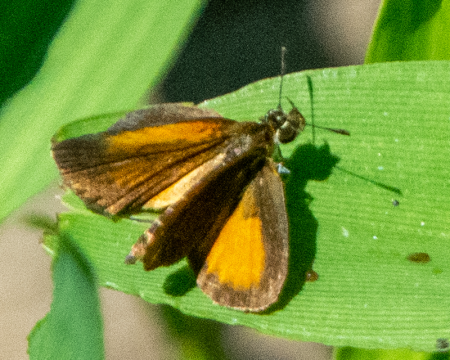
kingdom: Animalia
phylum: Arthropoda
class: Insecta
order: Lepidoptera
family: Hesperiidae
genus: Ancyloxypha
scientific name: Ancyloxypha numitor
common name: Least Skipper
